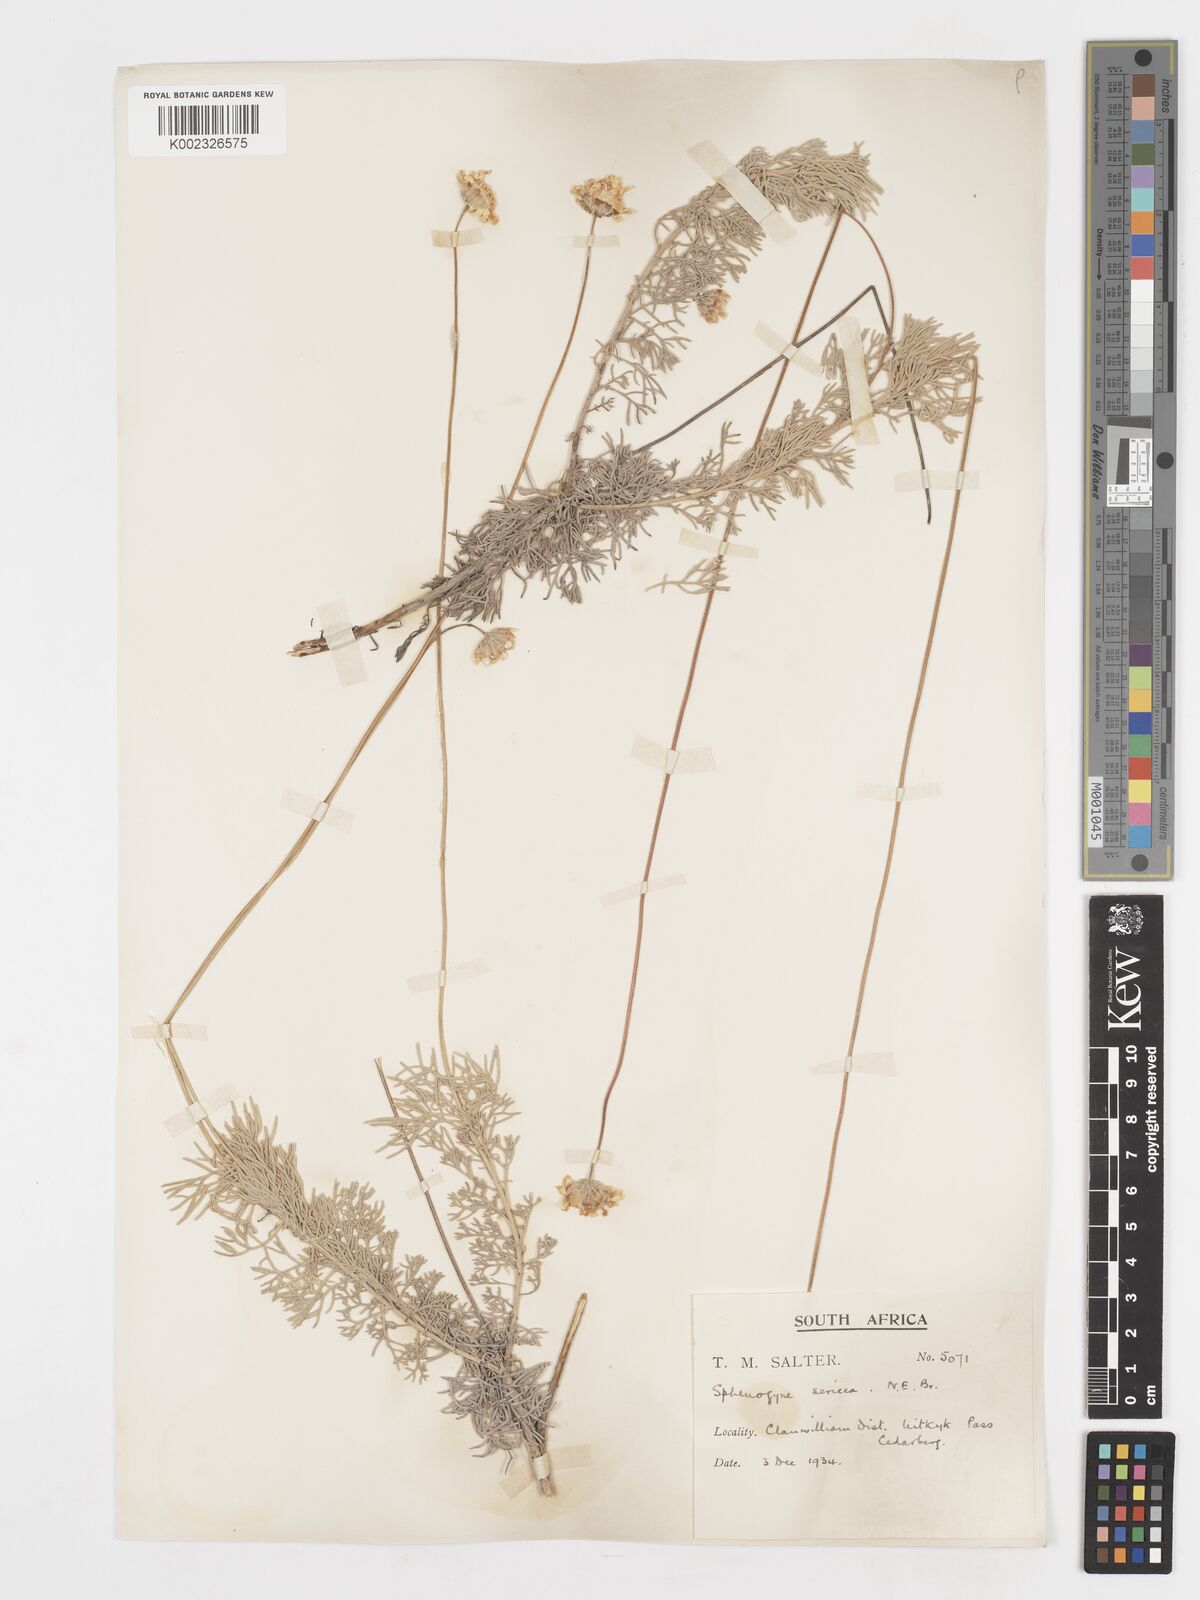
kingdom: Plantae
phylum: Tracheophyta
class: Magnoliopsida
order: Asterales
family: Asteraceae
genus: Ursinia
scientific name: Ursinia sericea
